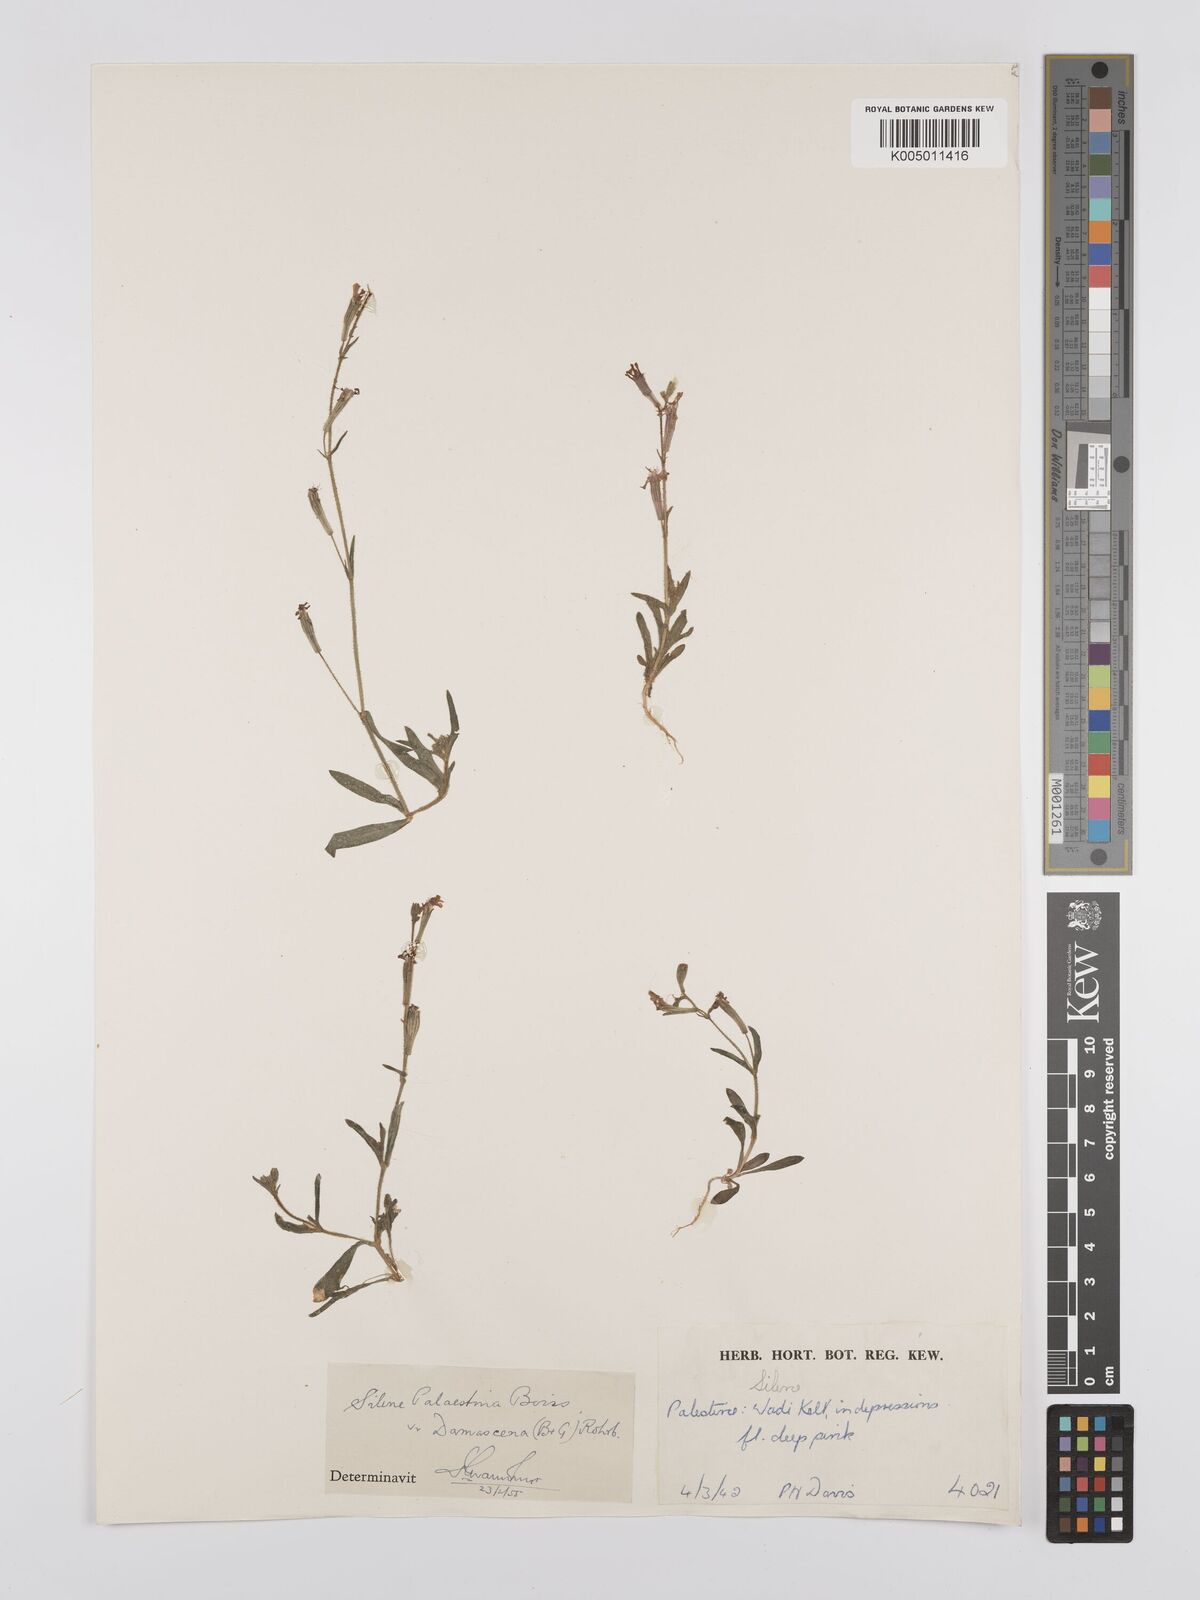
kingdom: Plantae
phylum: Tracheophyta
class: Magnoliopsida
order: Caryophyllales
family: Caryophyllaceae
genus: Silene
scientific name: Silene damascena
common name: Damascus catchfly
